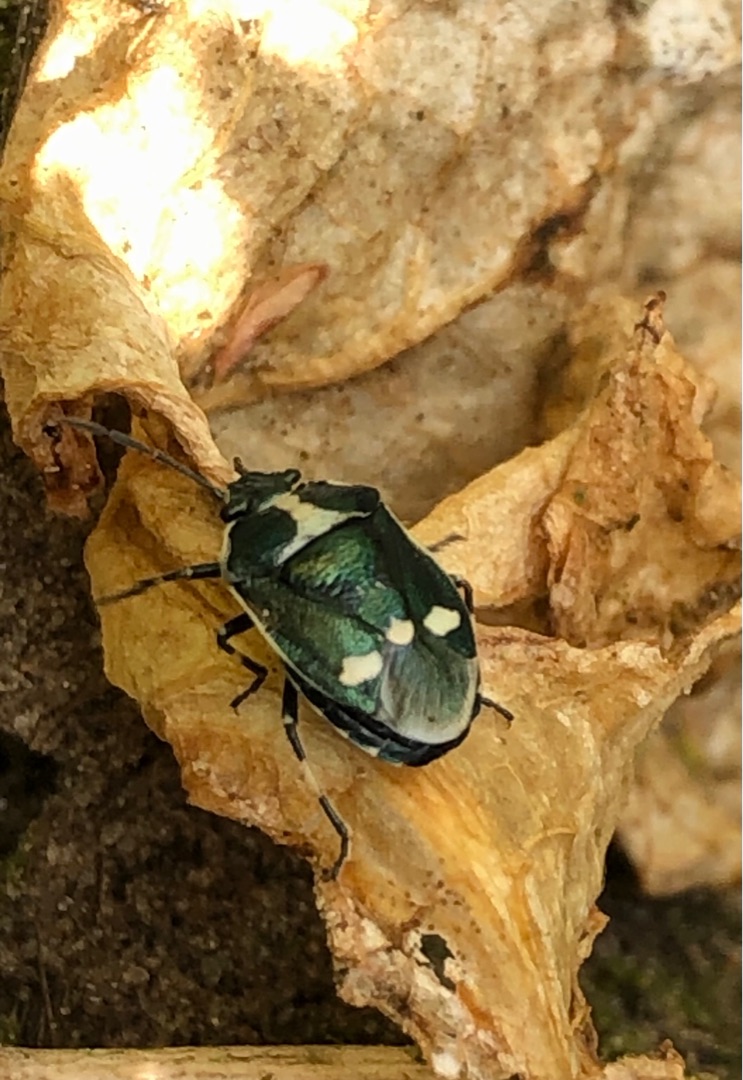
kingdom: Animalia
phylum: Arthropoda
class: Insecta
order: Hemiptera
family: Pentatomidae
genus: Eurydema
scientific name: Eurydema oleracea
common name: Almindelig kåltæge
